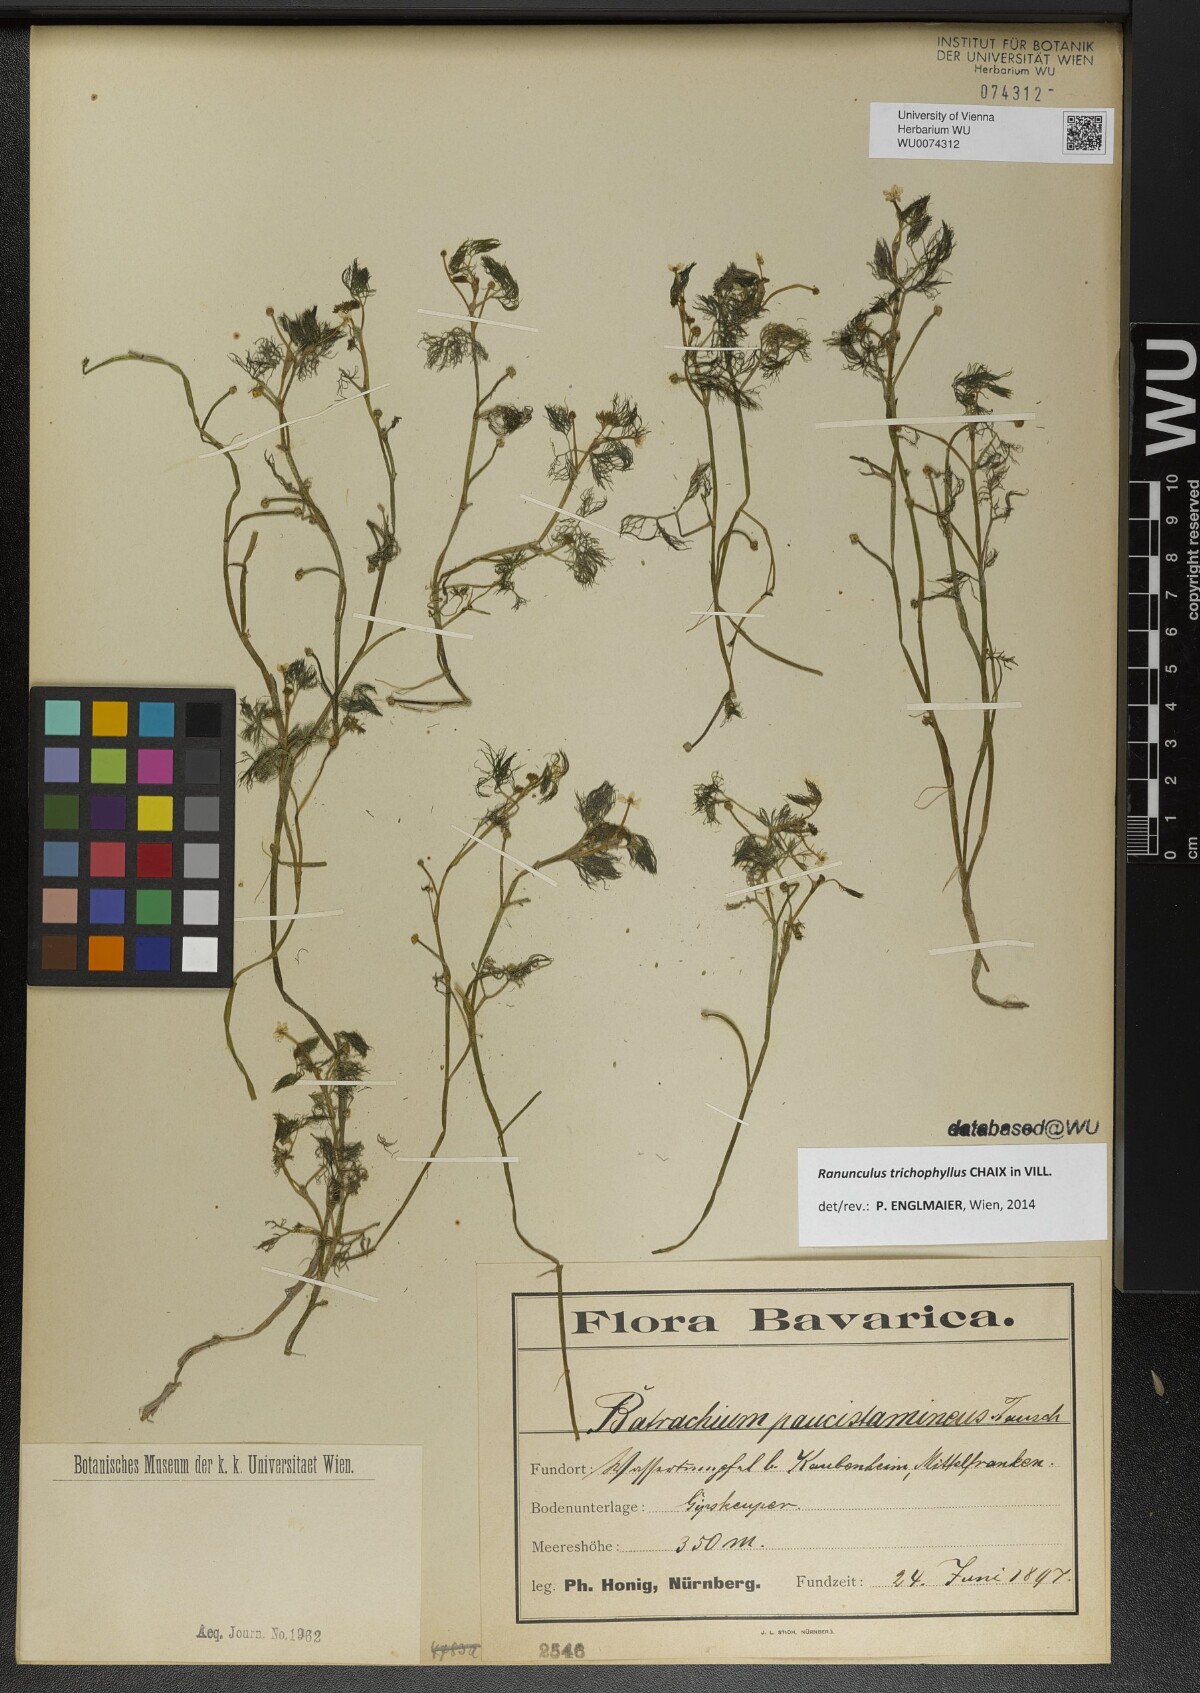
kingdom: Plantae
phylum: Tracheophyta
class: Magnoliopsida
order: Ranunculales
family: Ranunculaceae
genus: Ranunculus
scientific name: Ranunculus trichophyllus
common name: Thread-leaved water-crowfoot
